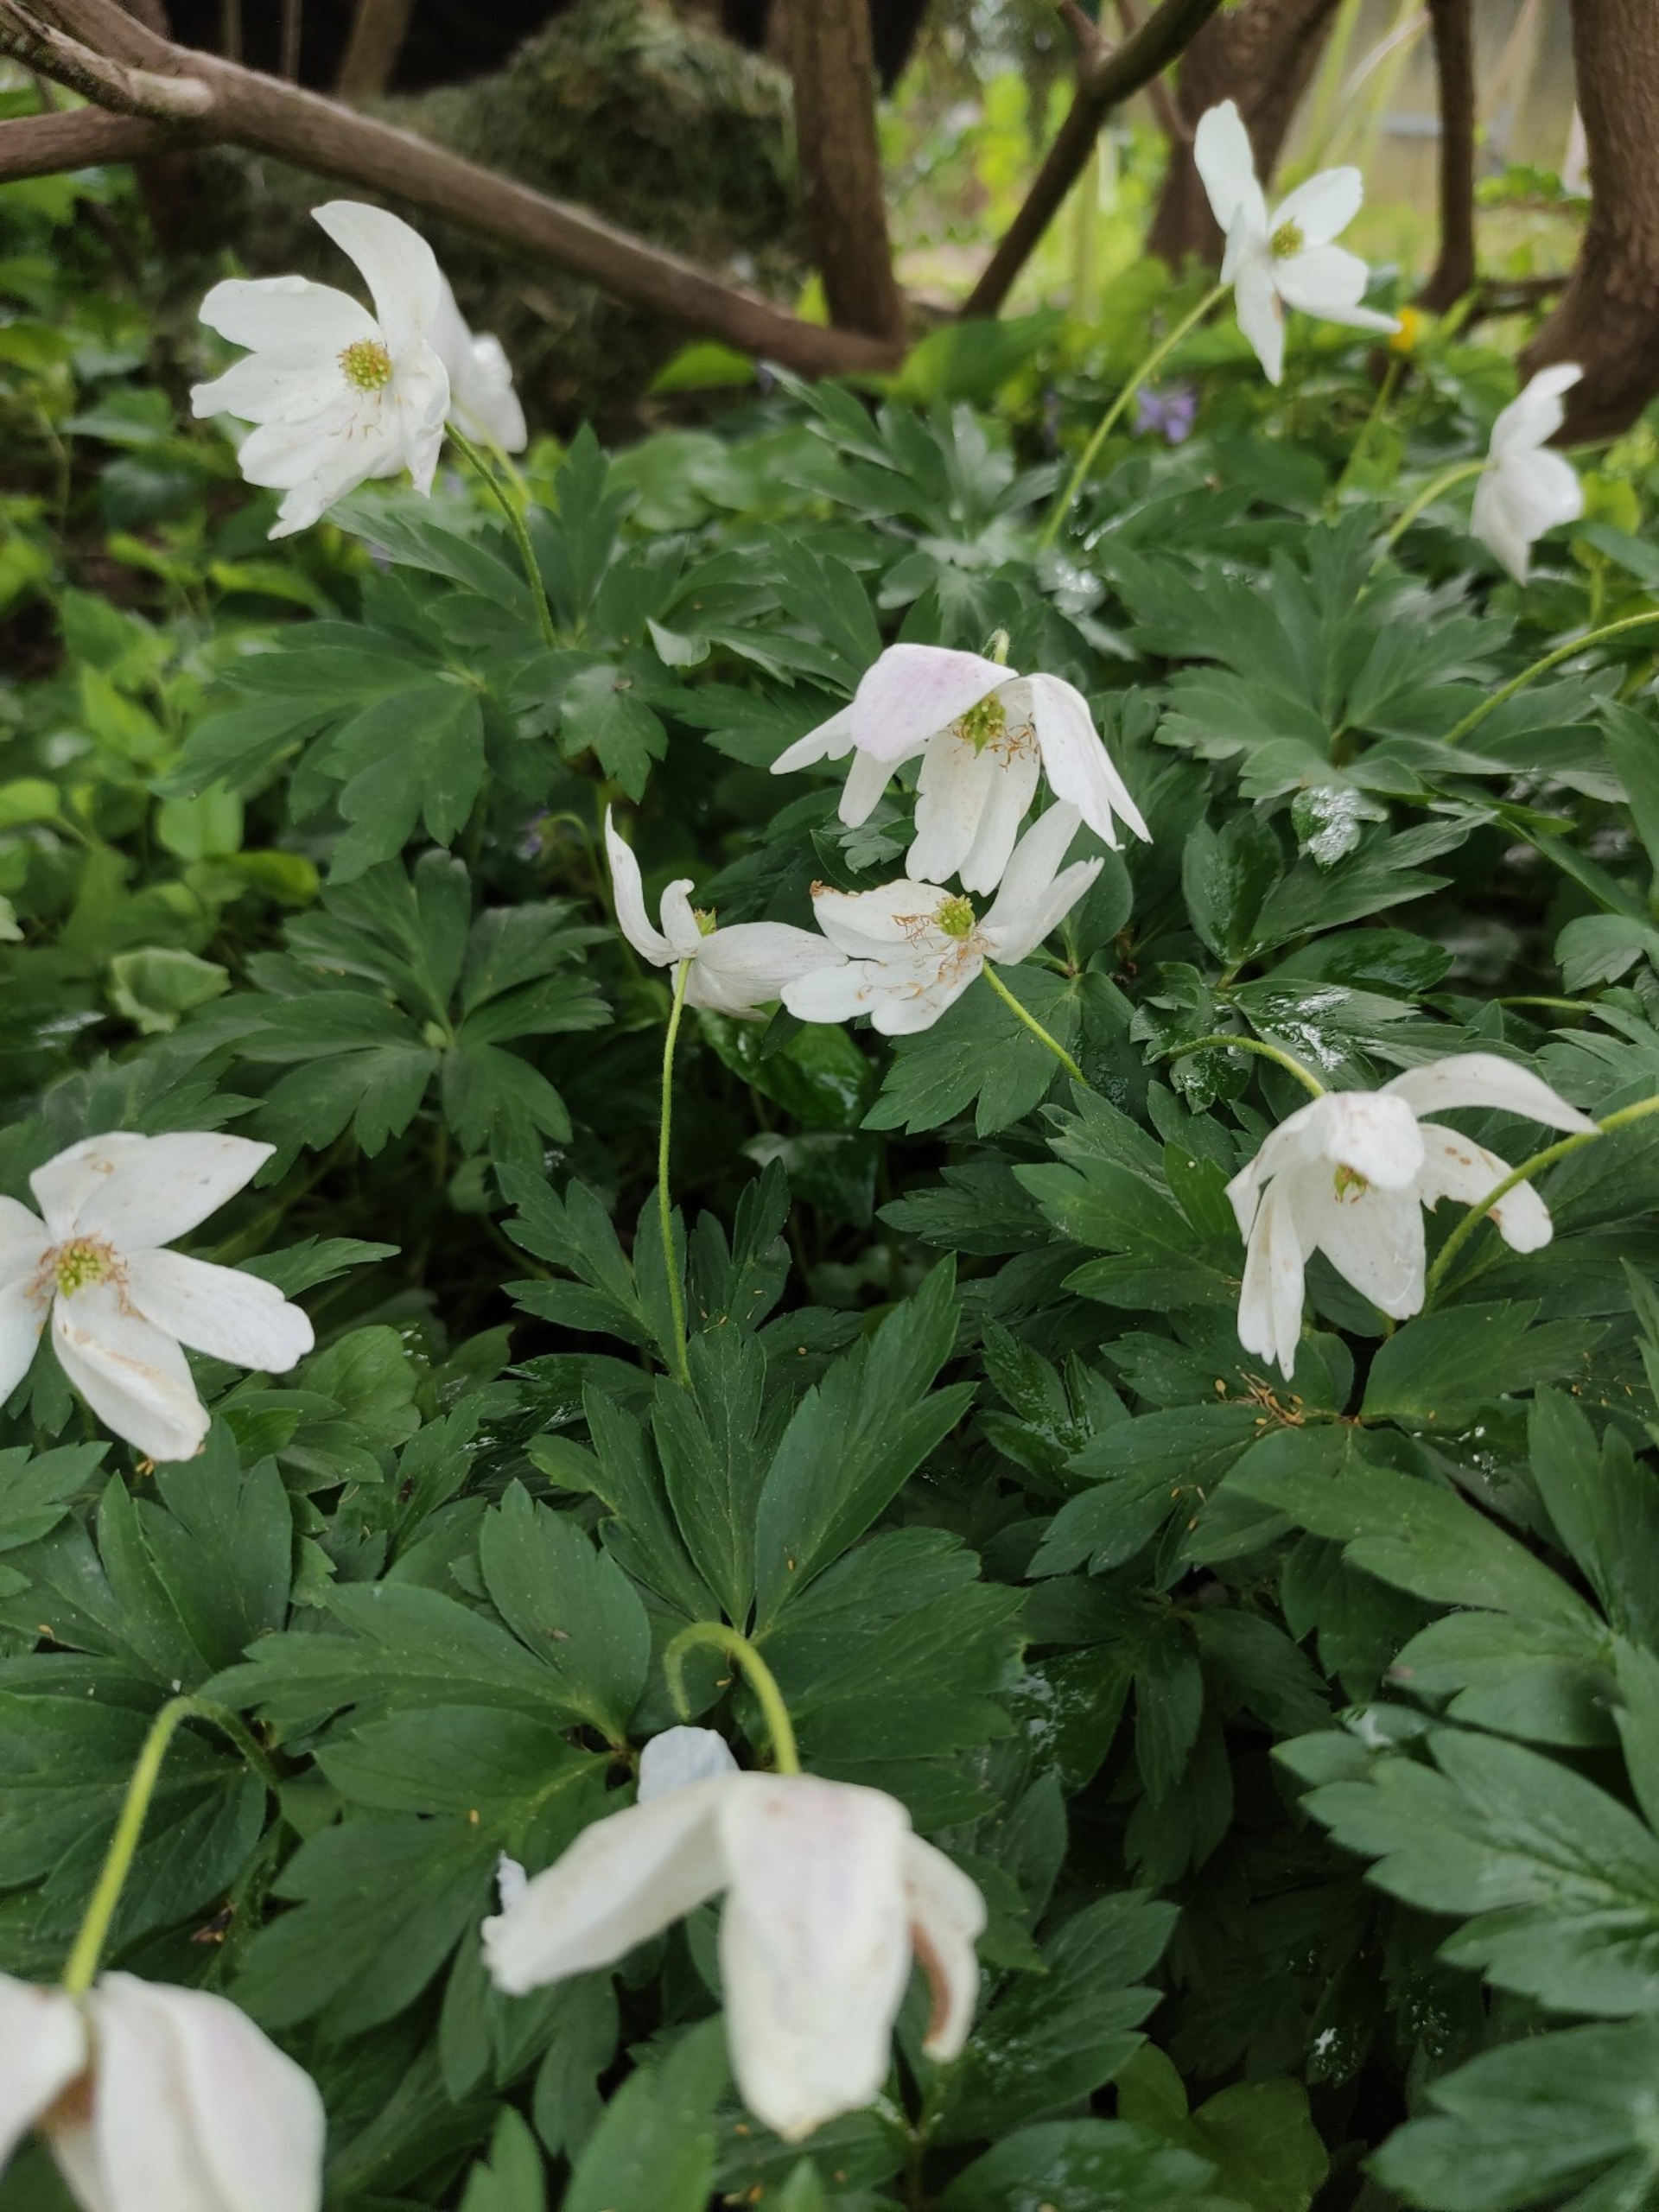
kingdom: Plantae
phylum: Tracheophyta
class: Magnoliopsida
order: Ranunculales
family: Ranunculaceae
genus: Anemone
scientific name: Anemone nemorosa
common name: Hvid anemone
